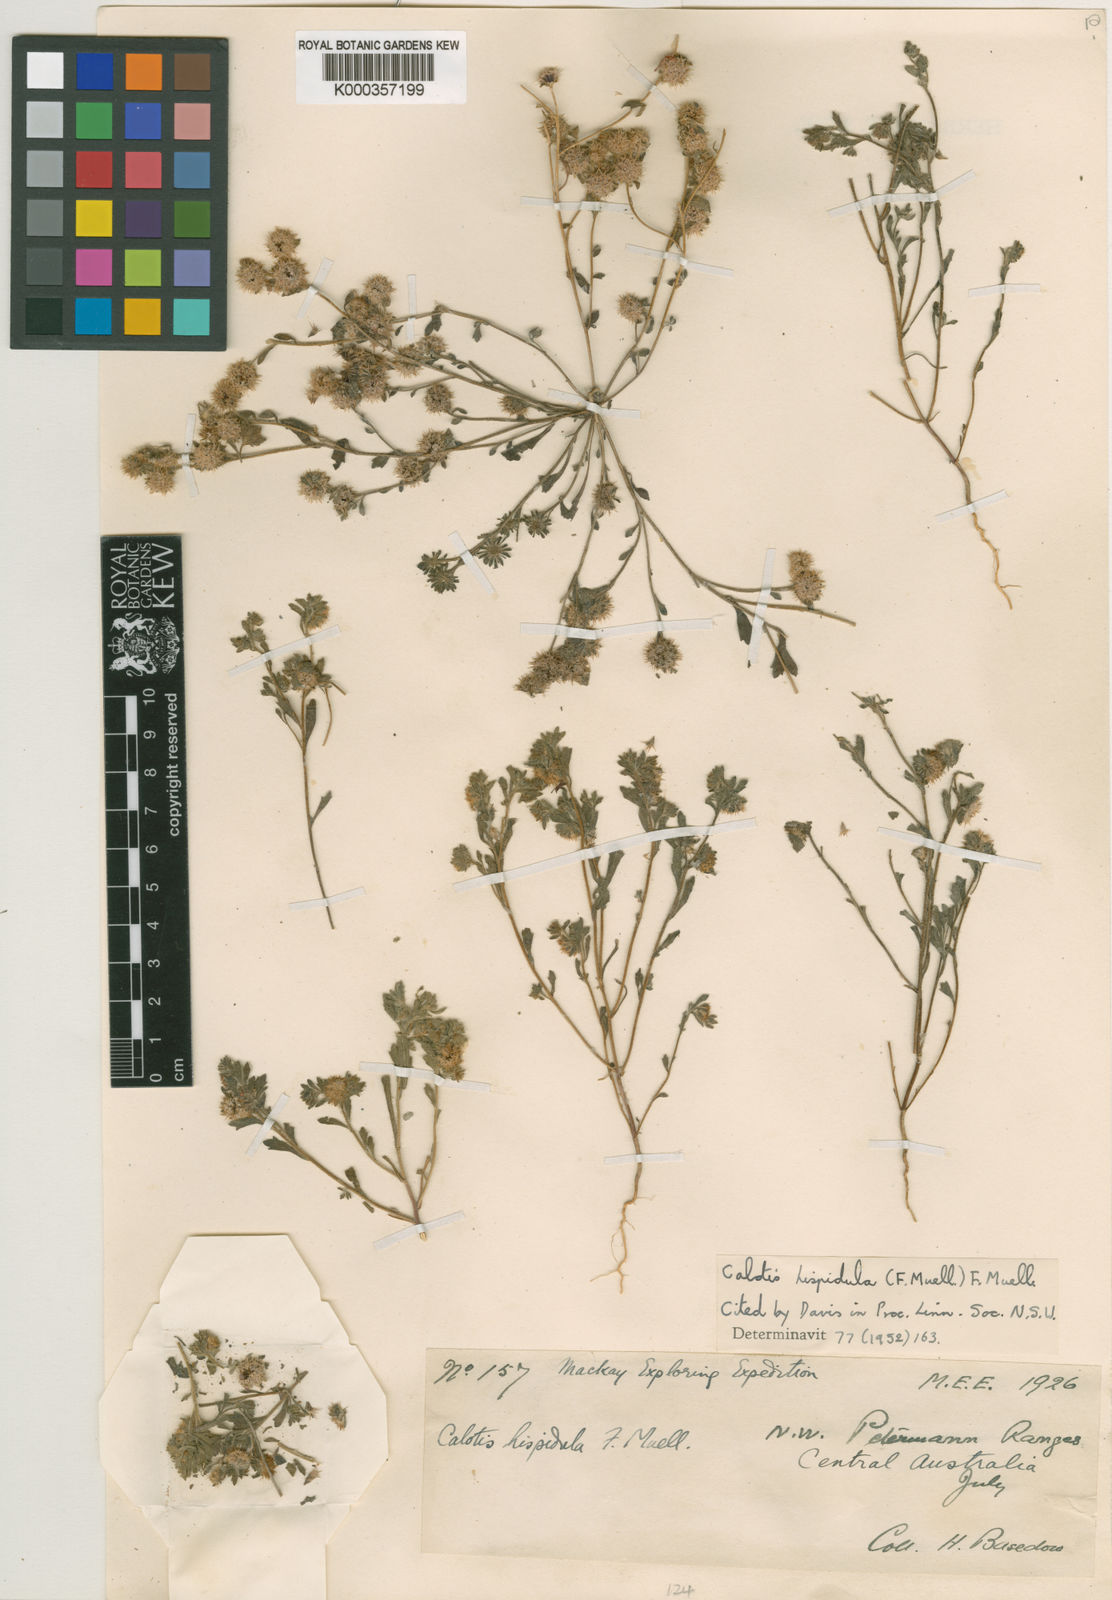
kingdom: Plantae
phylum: Tracheophyta
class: Magnoliopsida
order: Asterales
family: Asteraceae
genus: Calotis
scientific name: Calotis hispidula
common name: Bogan-flea
